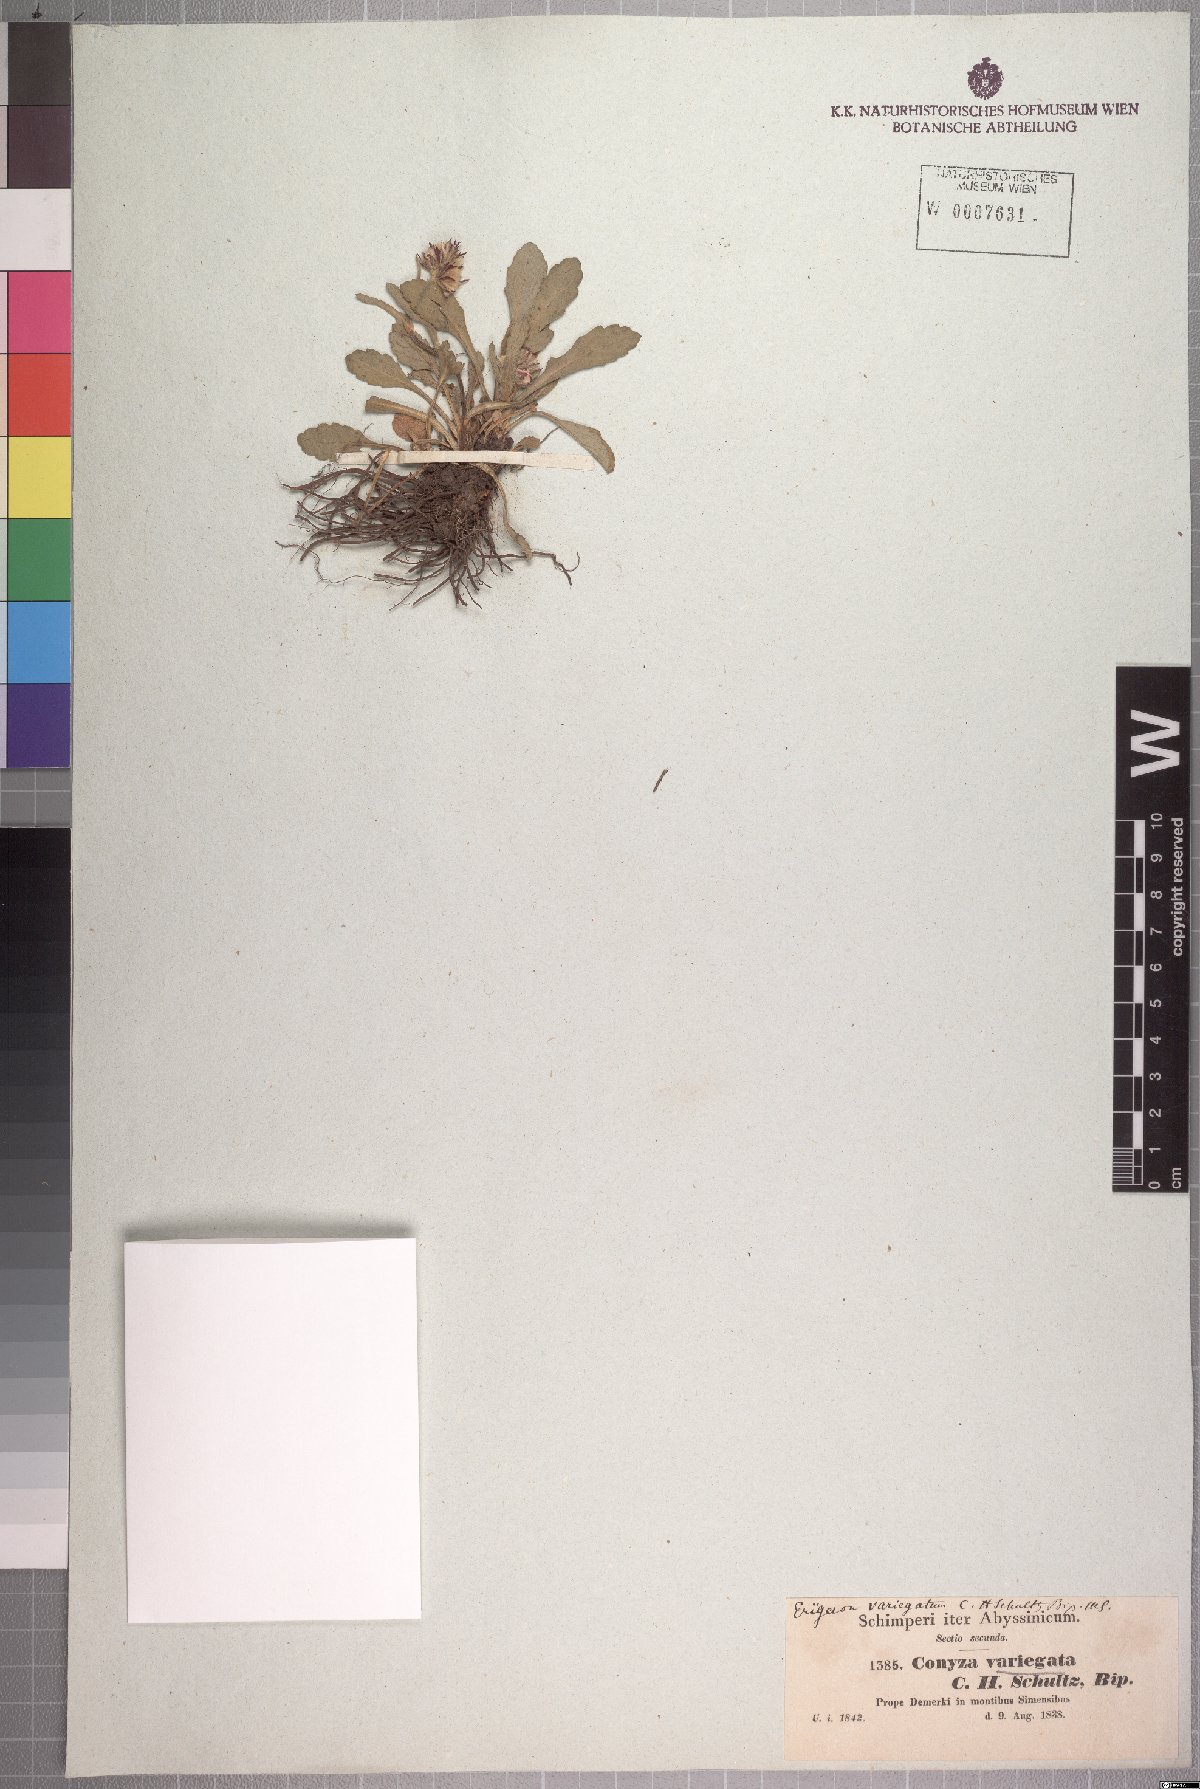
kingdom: Plantae
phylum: Tracheophyta
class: Magnoliopsida
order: Asterales
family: Asteraceae
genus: Conyza
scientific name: Conyza variegata
